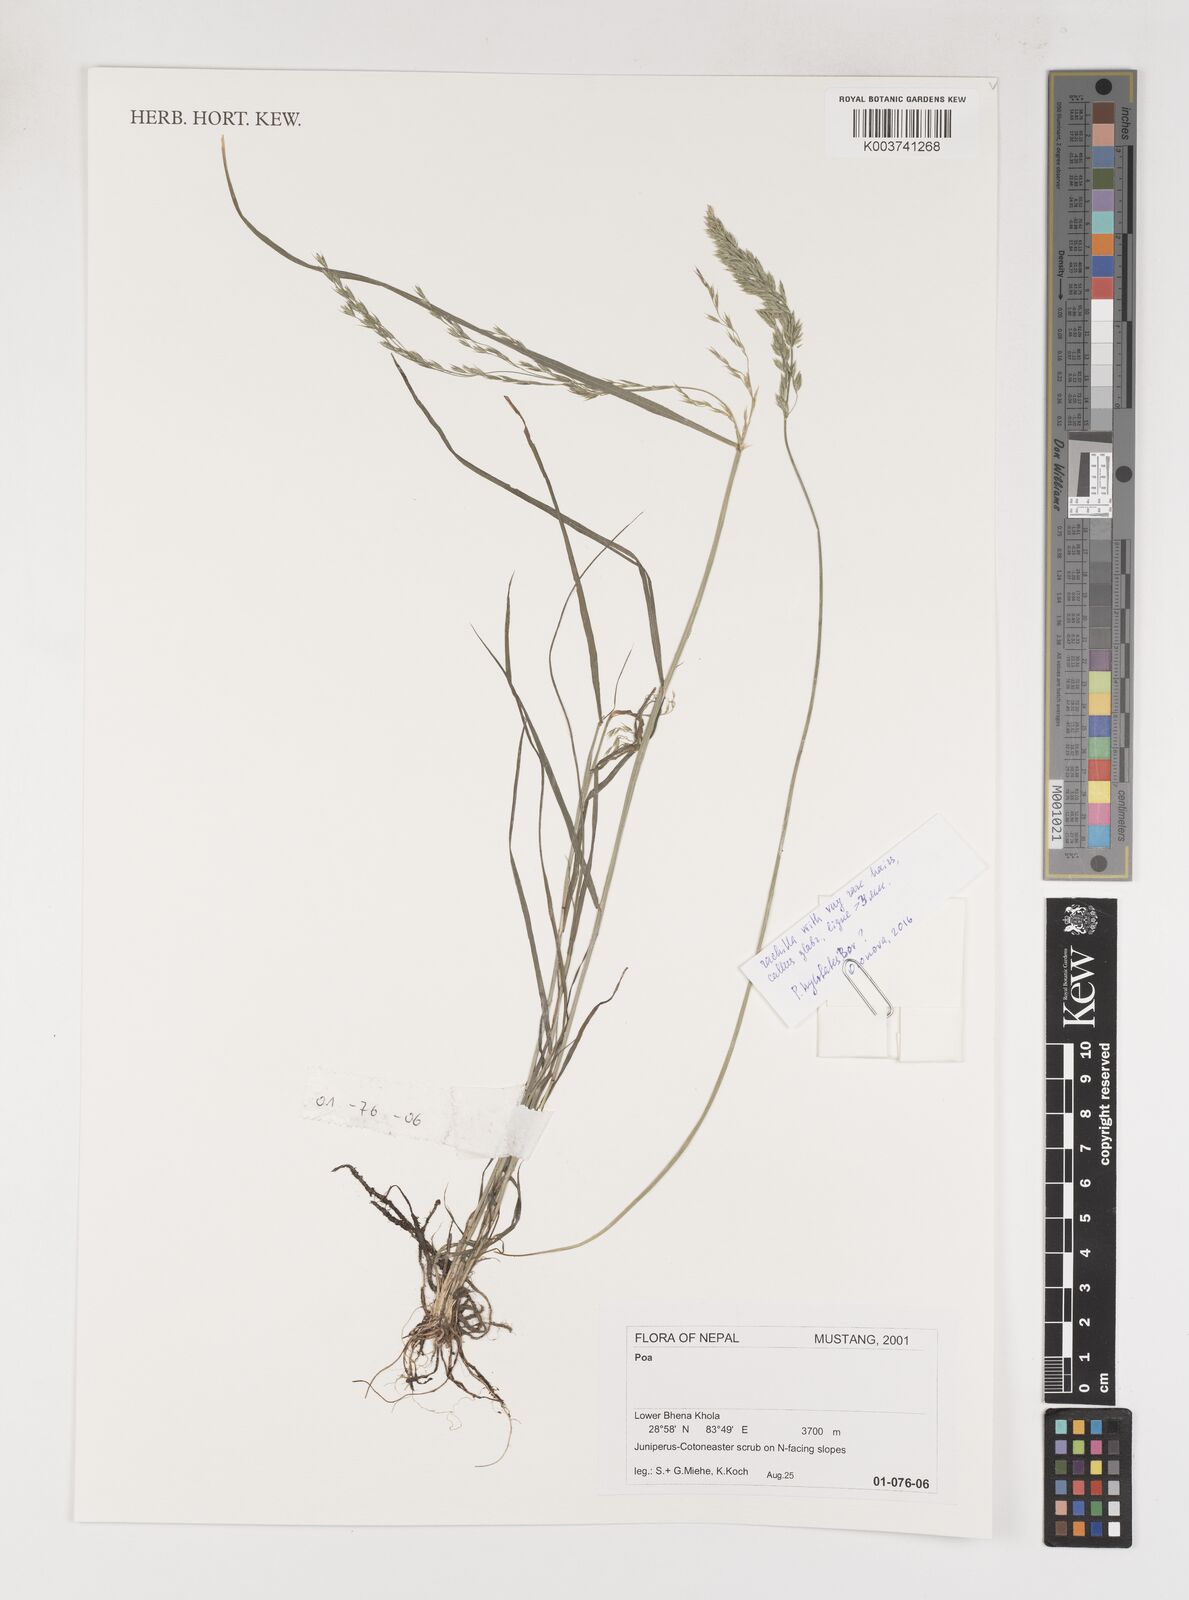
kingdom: Plantae
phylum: Tracheophyta
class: Liliopsida
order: Poales
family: Poaceae
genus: Poa
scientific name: Poa
